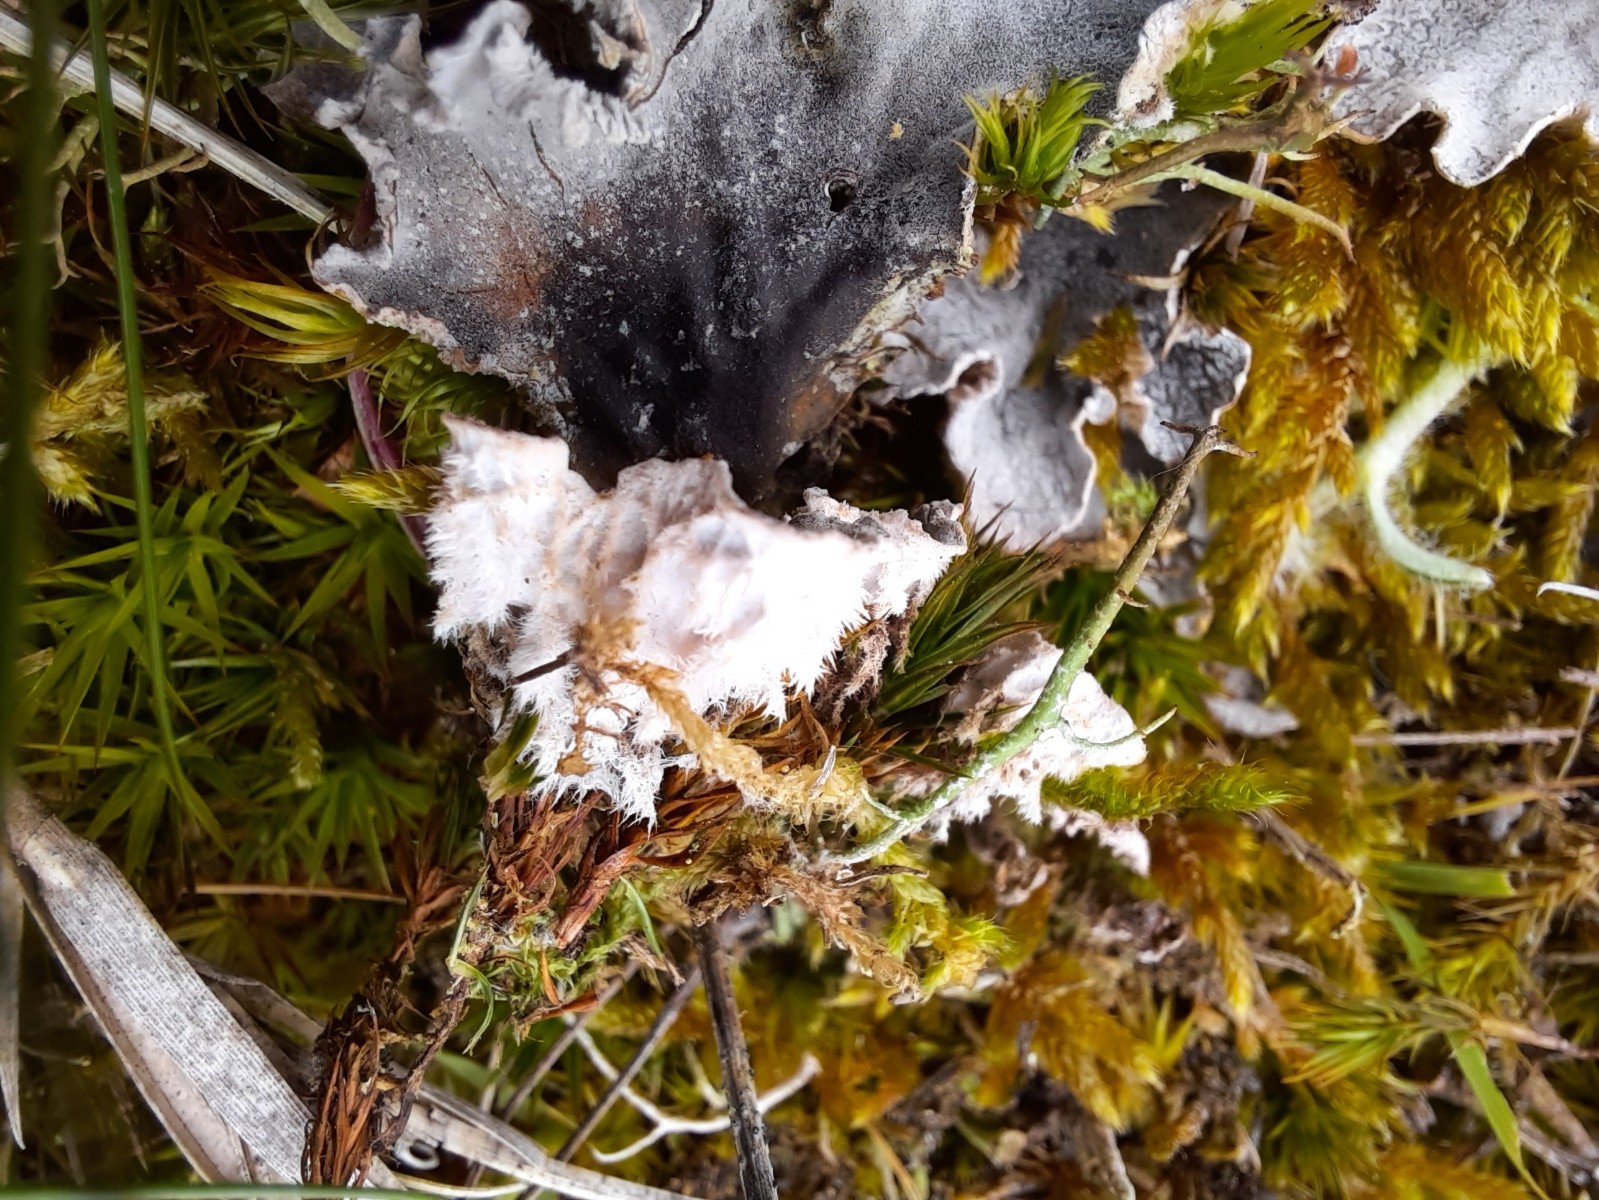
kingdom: Fungi
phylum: Ascomycota
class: Lecanoromycetes
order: Peltigerales
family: Peltigeraceae
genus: Peltigera
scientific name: Peltigera canina
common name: hunde-skjoldlav
